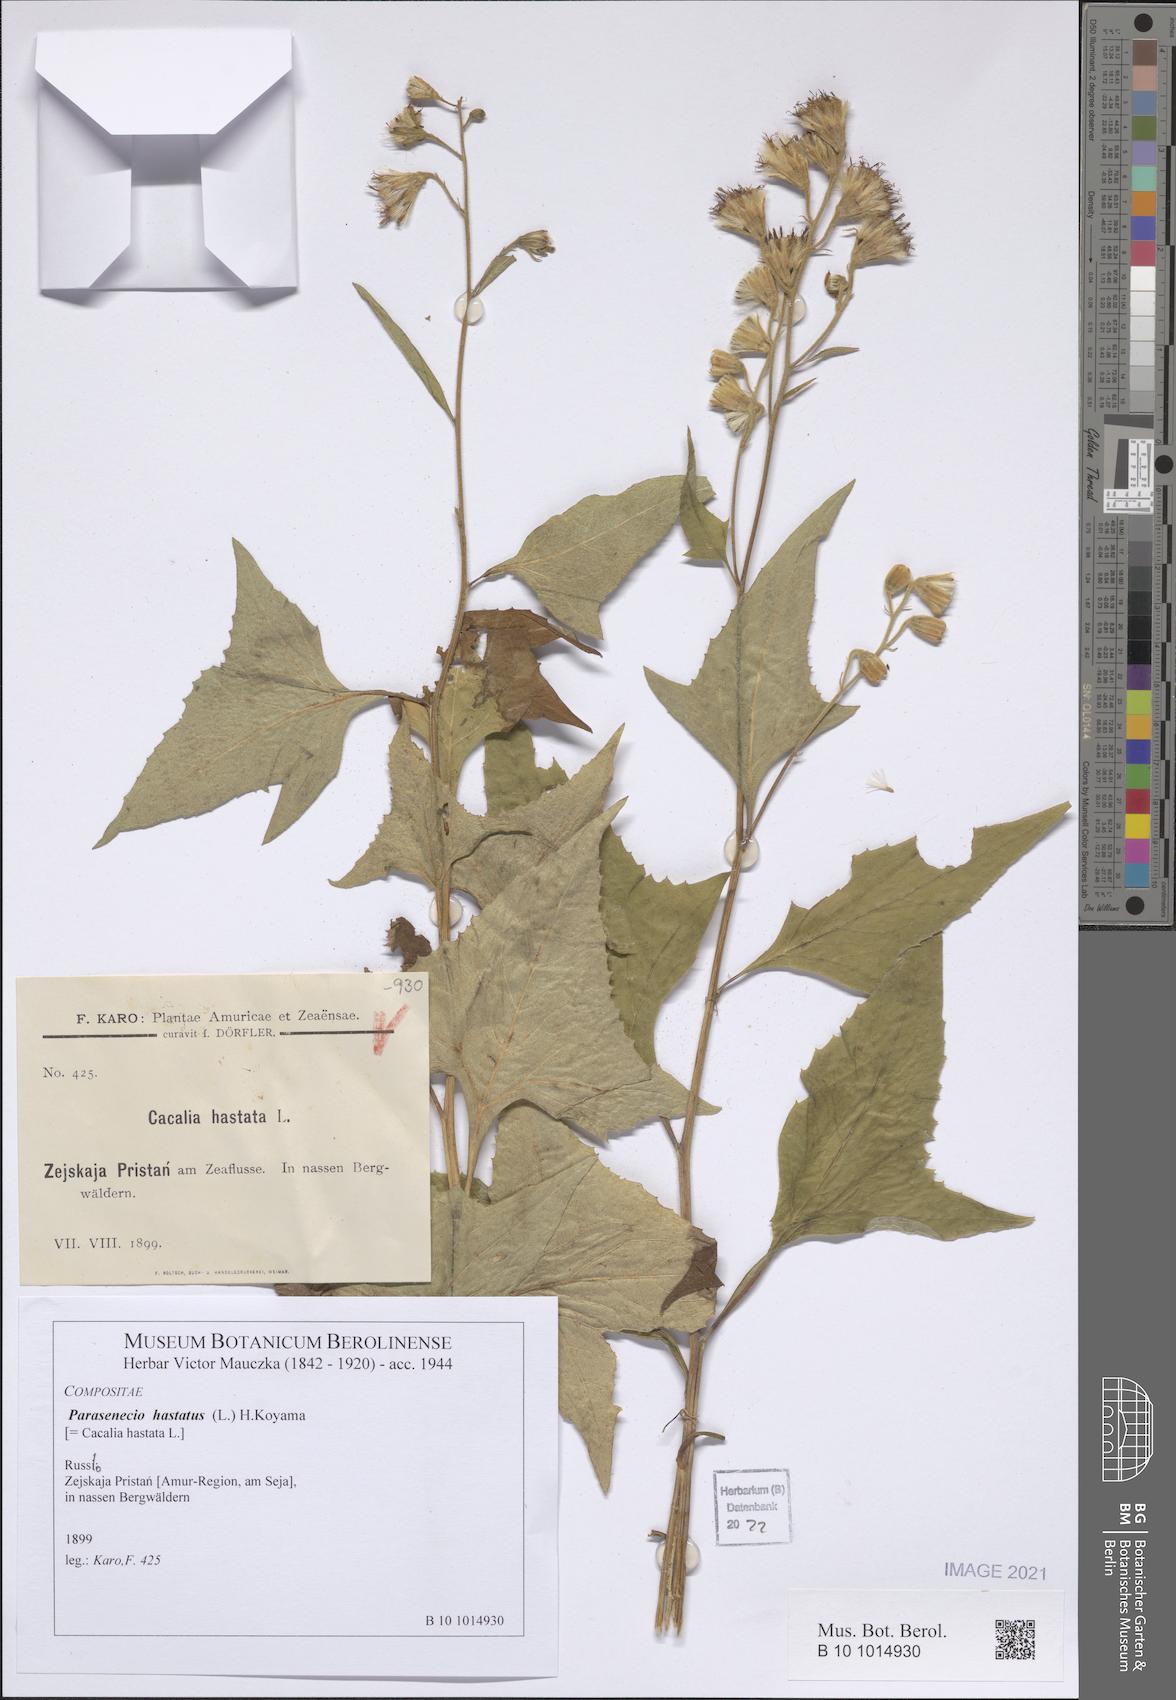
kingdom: Plantae
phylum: Tracheophyta
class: Magnoliopsida
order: Asterales
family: Asteraceae
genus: Parasenecio
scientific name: Parasenecio hastatus
